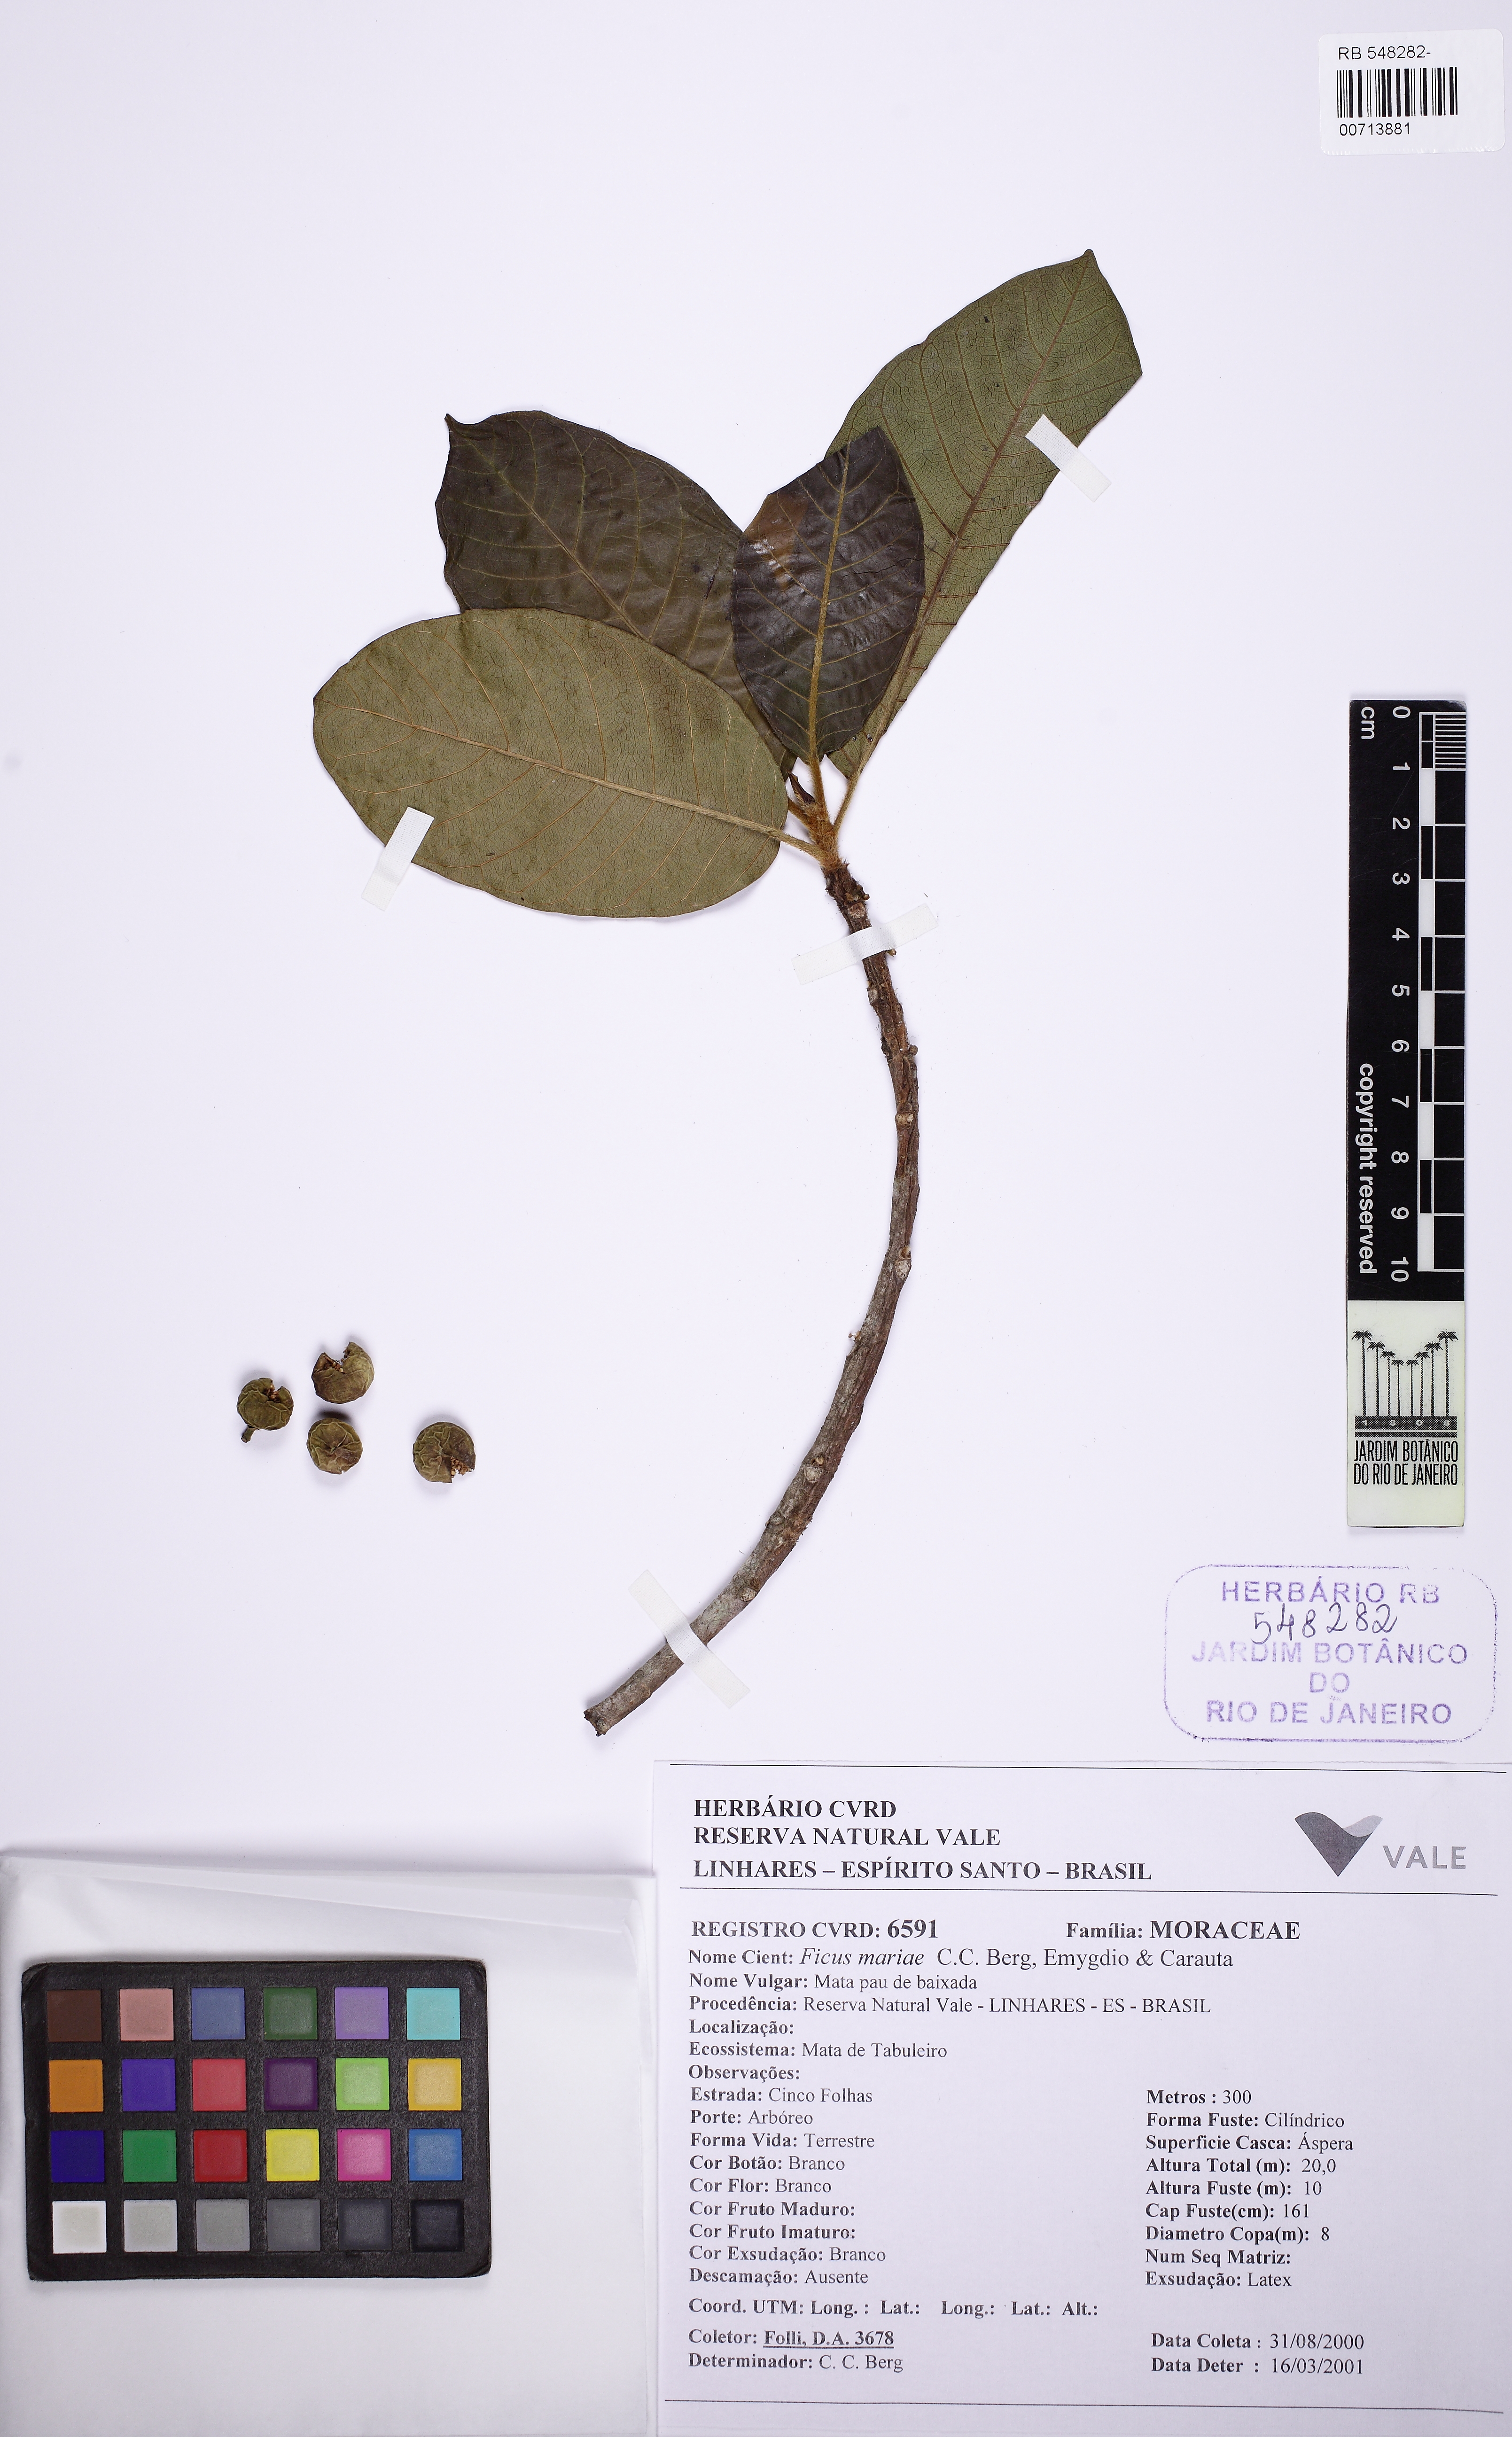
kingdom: Plantae
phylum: Tracheophyta
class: Magnoliopsida
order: Rosales
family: Moraceae
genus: Ficus
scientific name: Ficus mariae
